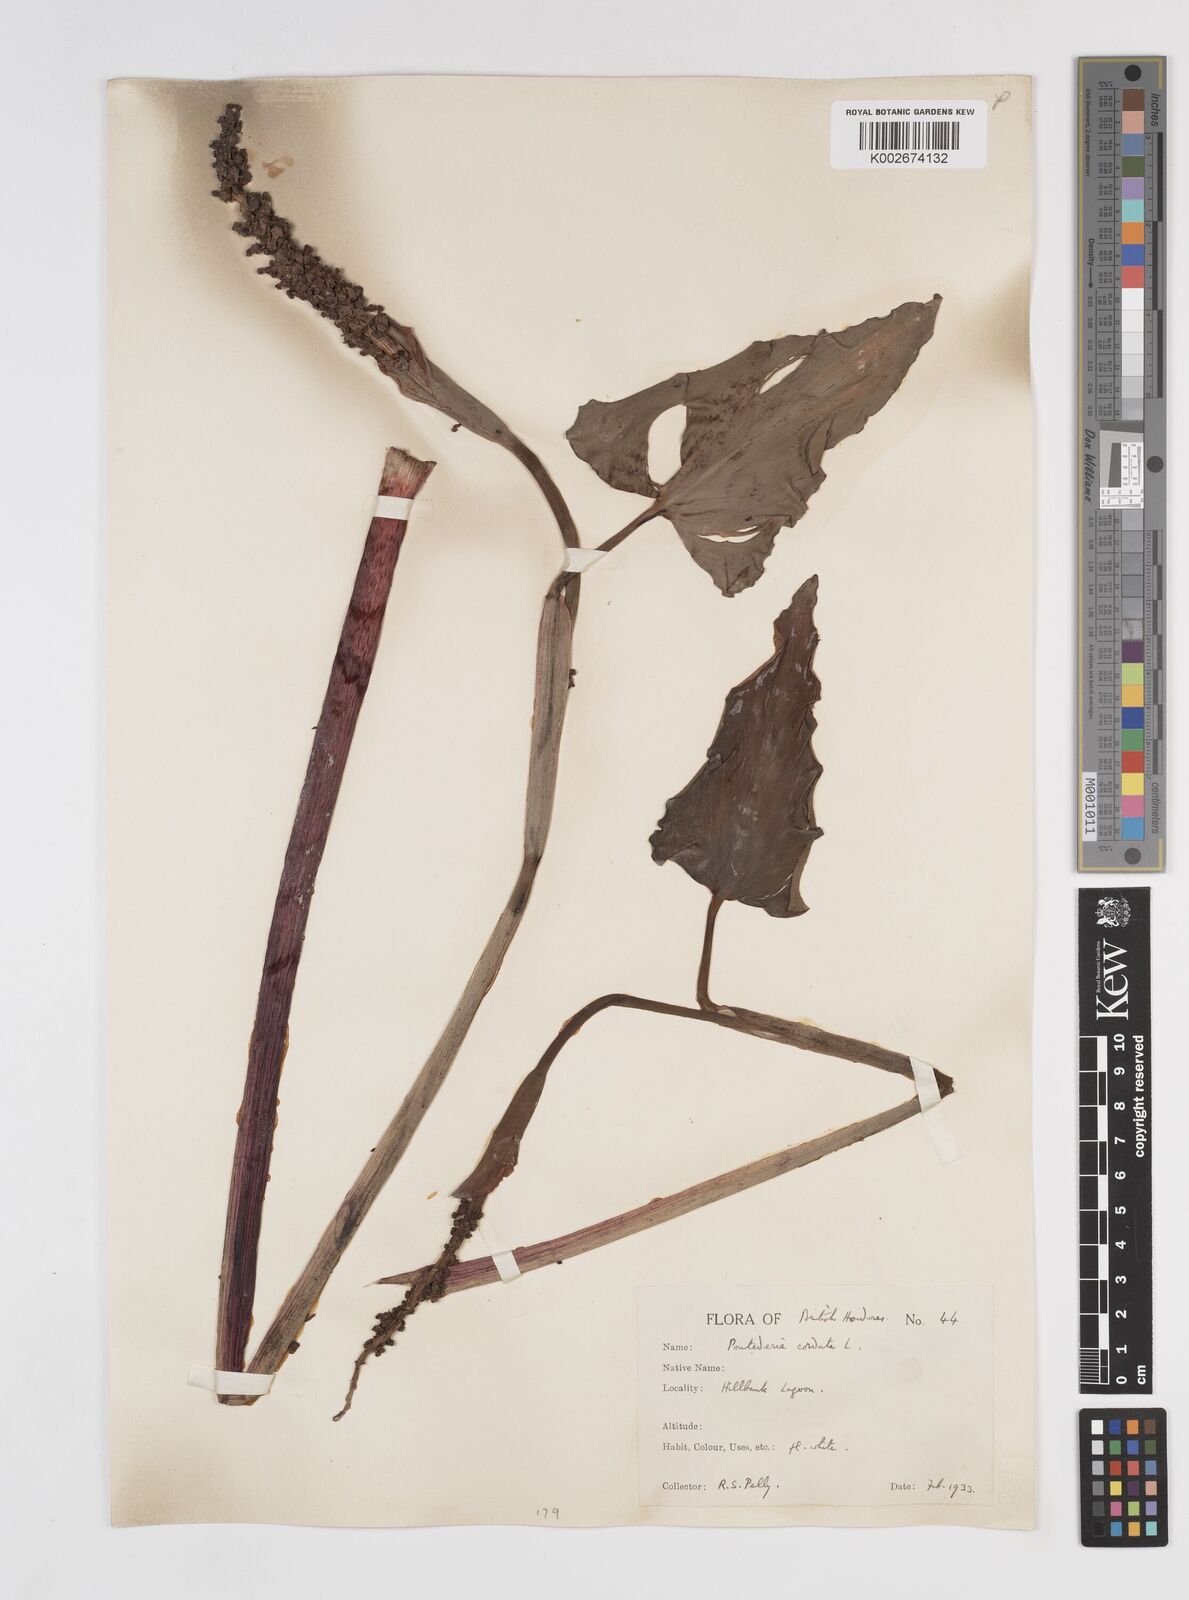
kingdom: Plantae
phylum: Tracheophyta
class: Liliopsida
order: Commelinales
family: Pontederiaceae
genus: Pontederia
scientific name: Pontederia
